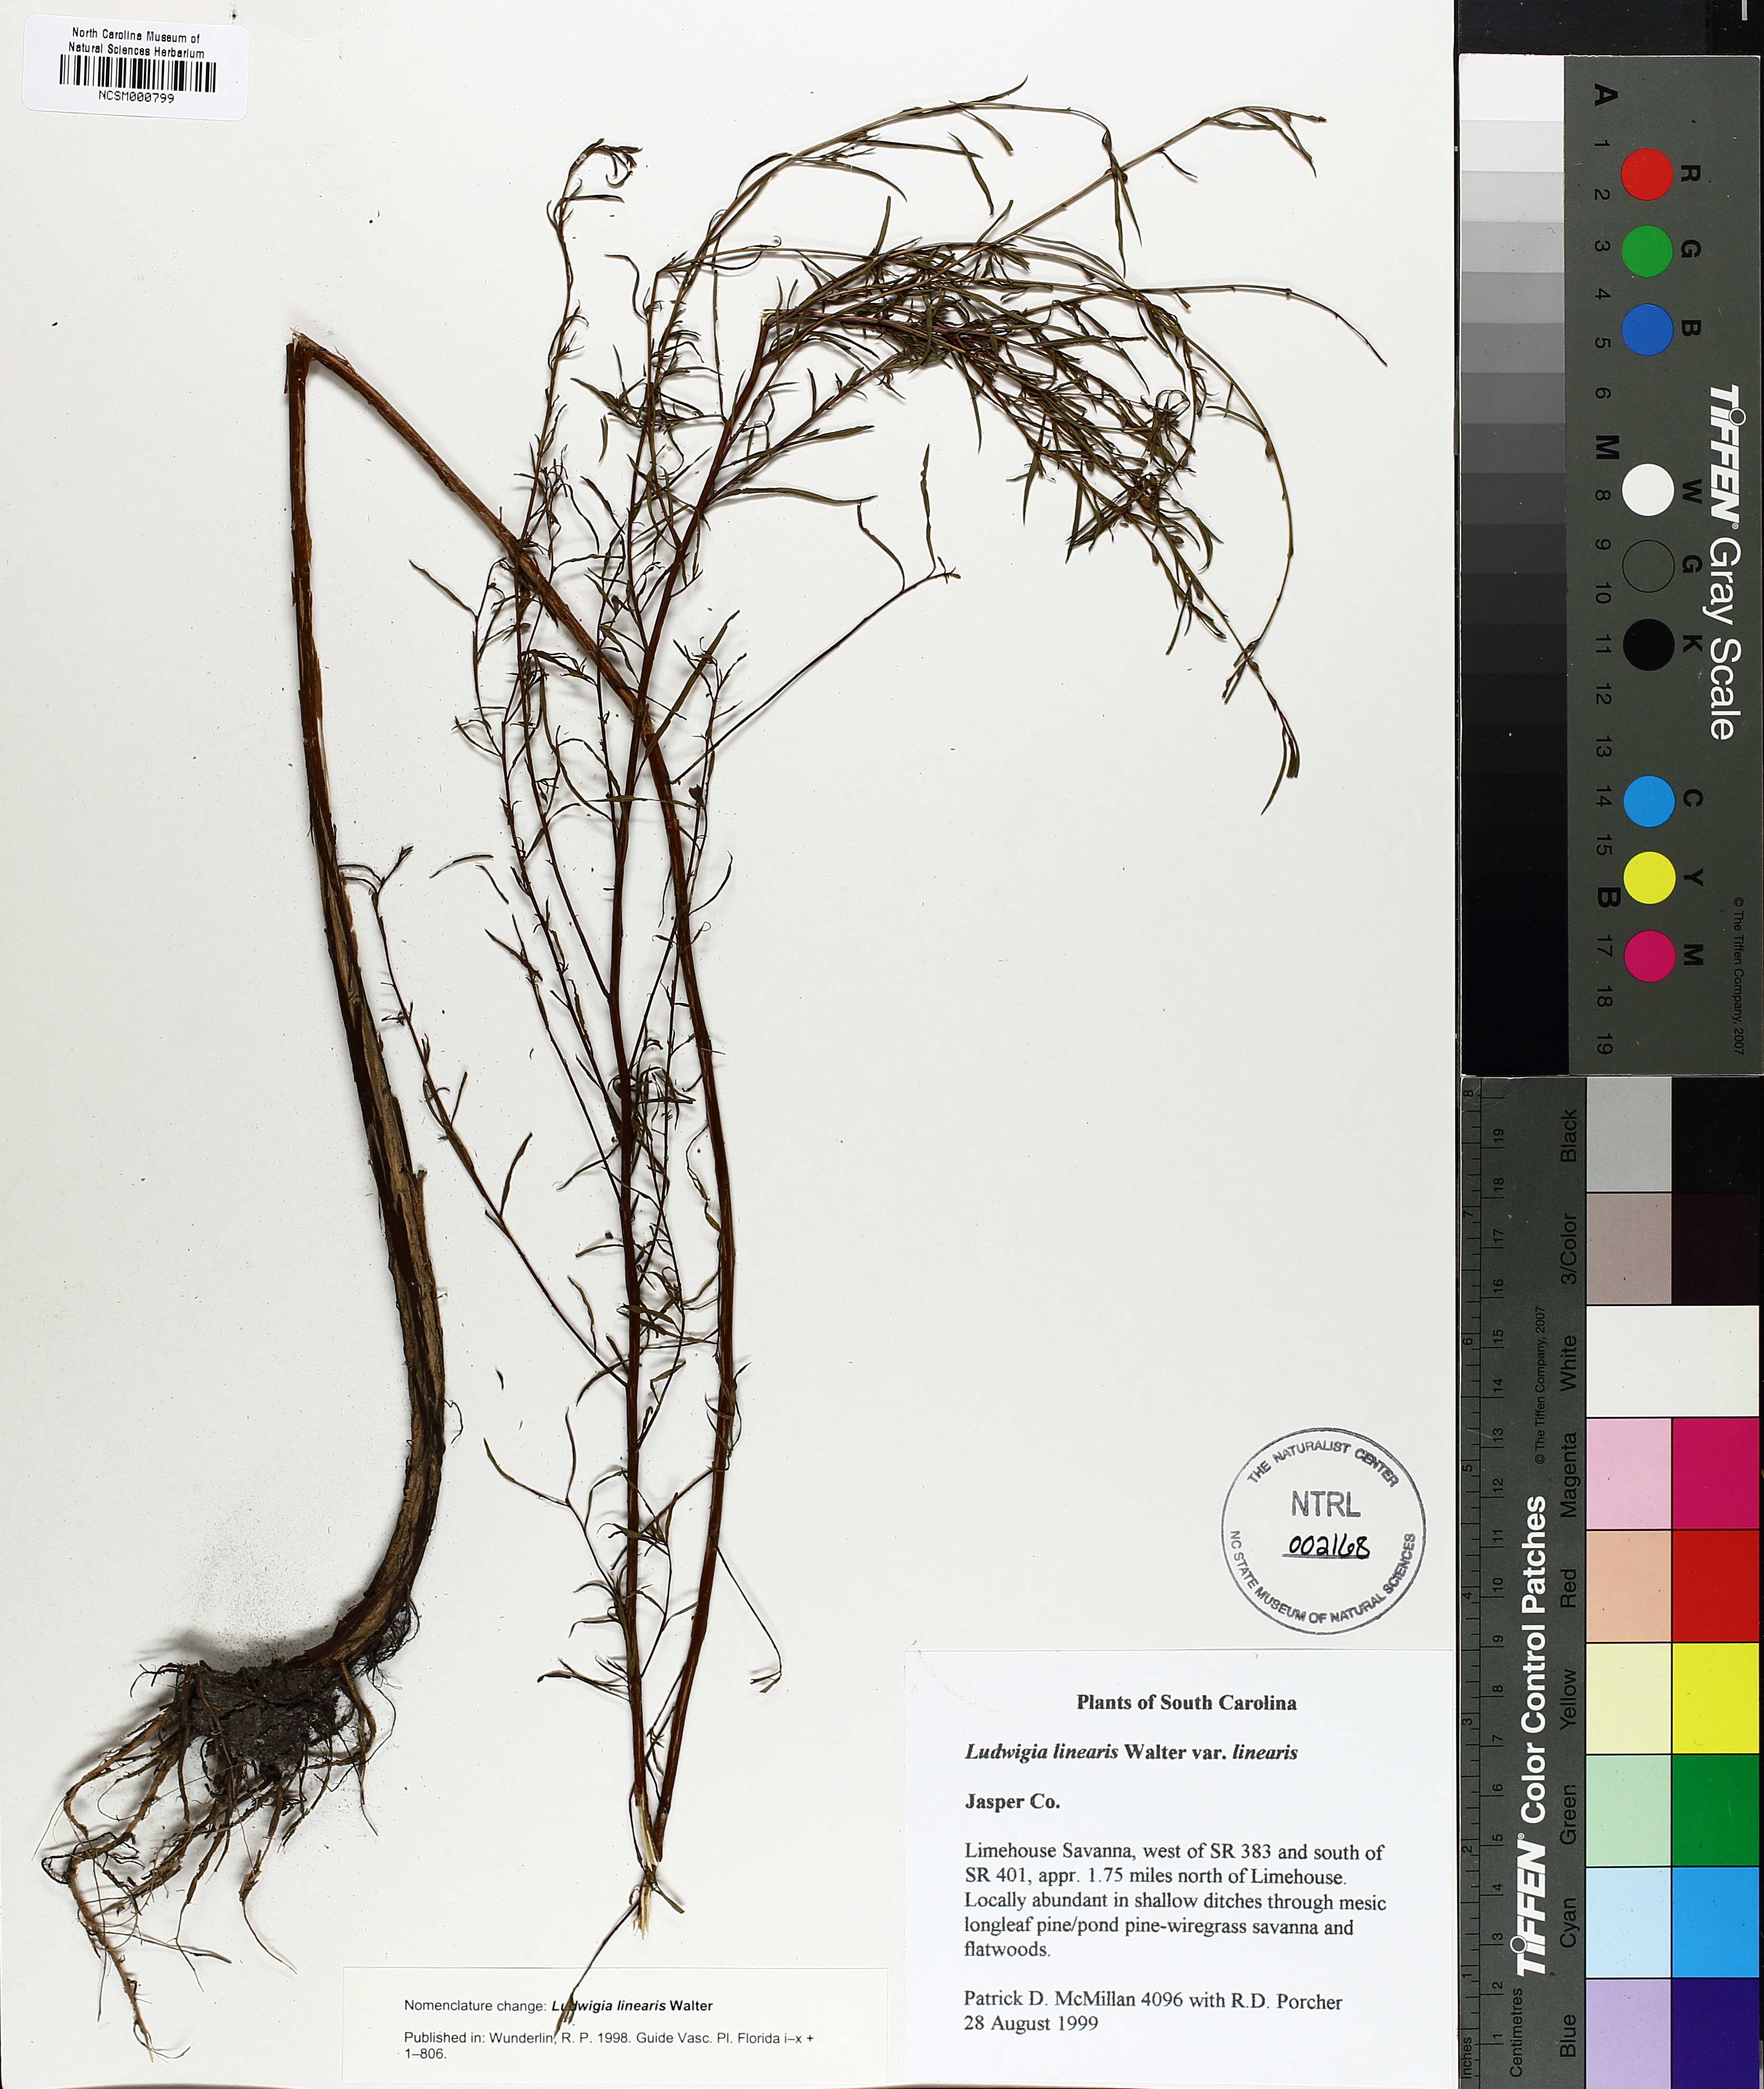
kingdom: Plantae
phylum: Tracheophyta
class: Magnoliopsida
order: Myrtales
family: Onagraceae
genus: Ludwigia
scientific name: Ludwigia linearis
